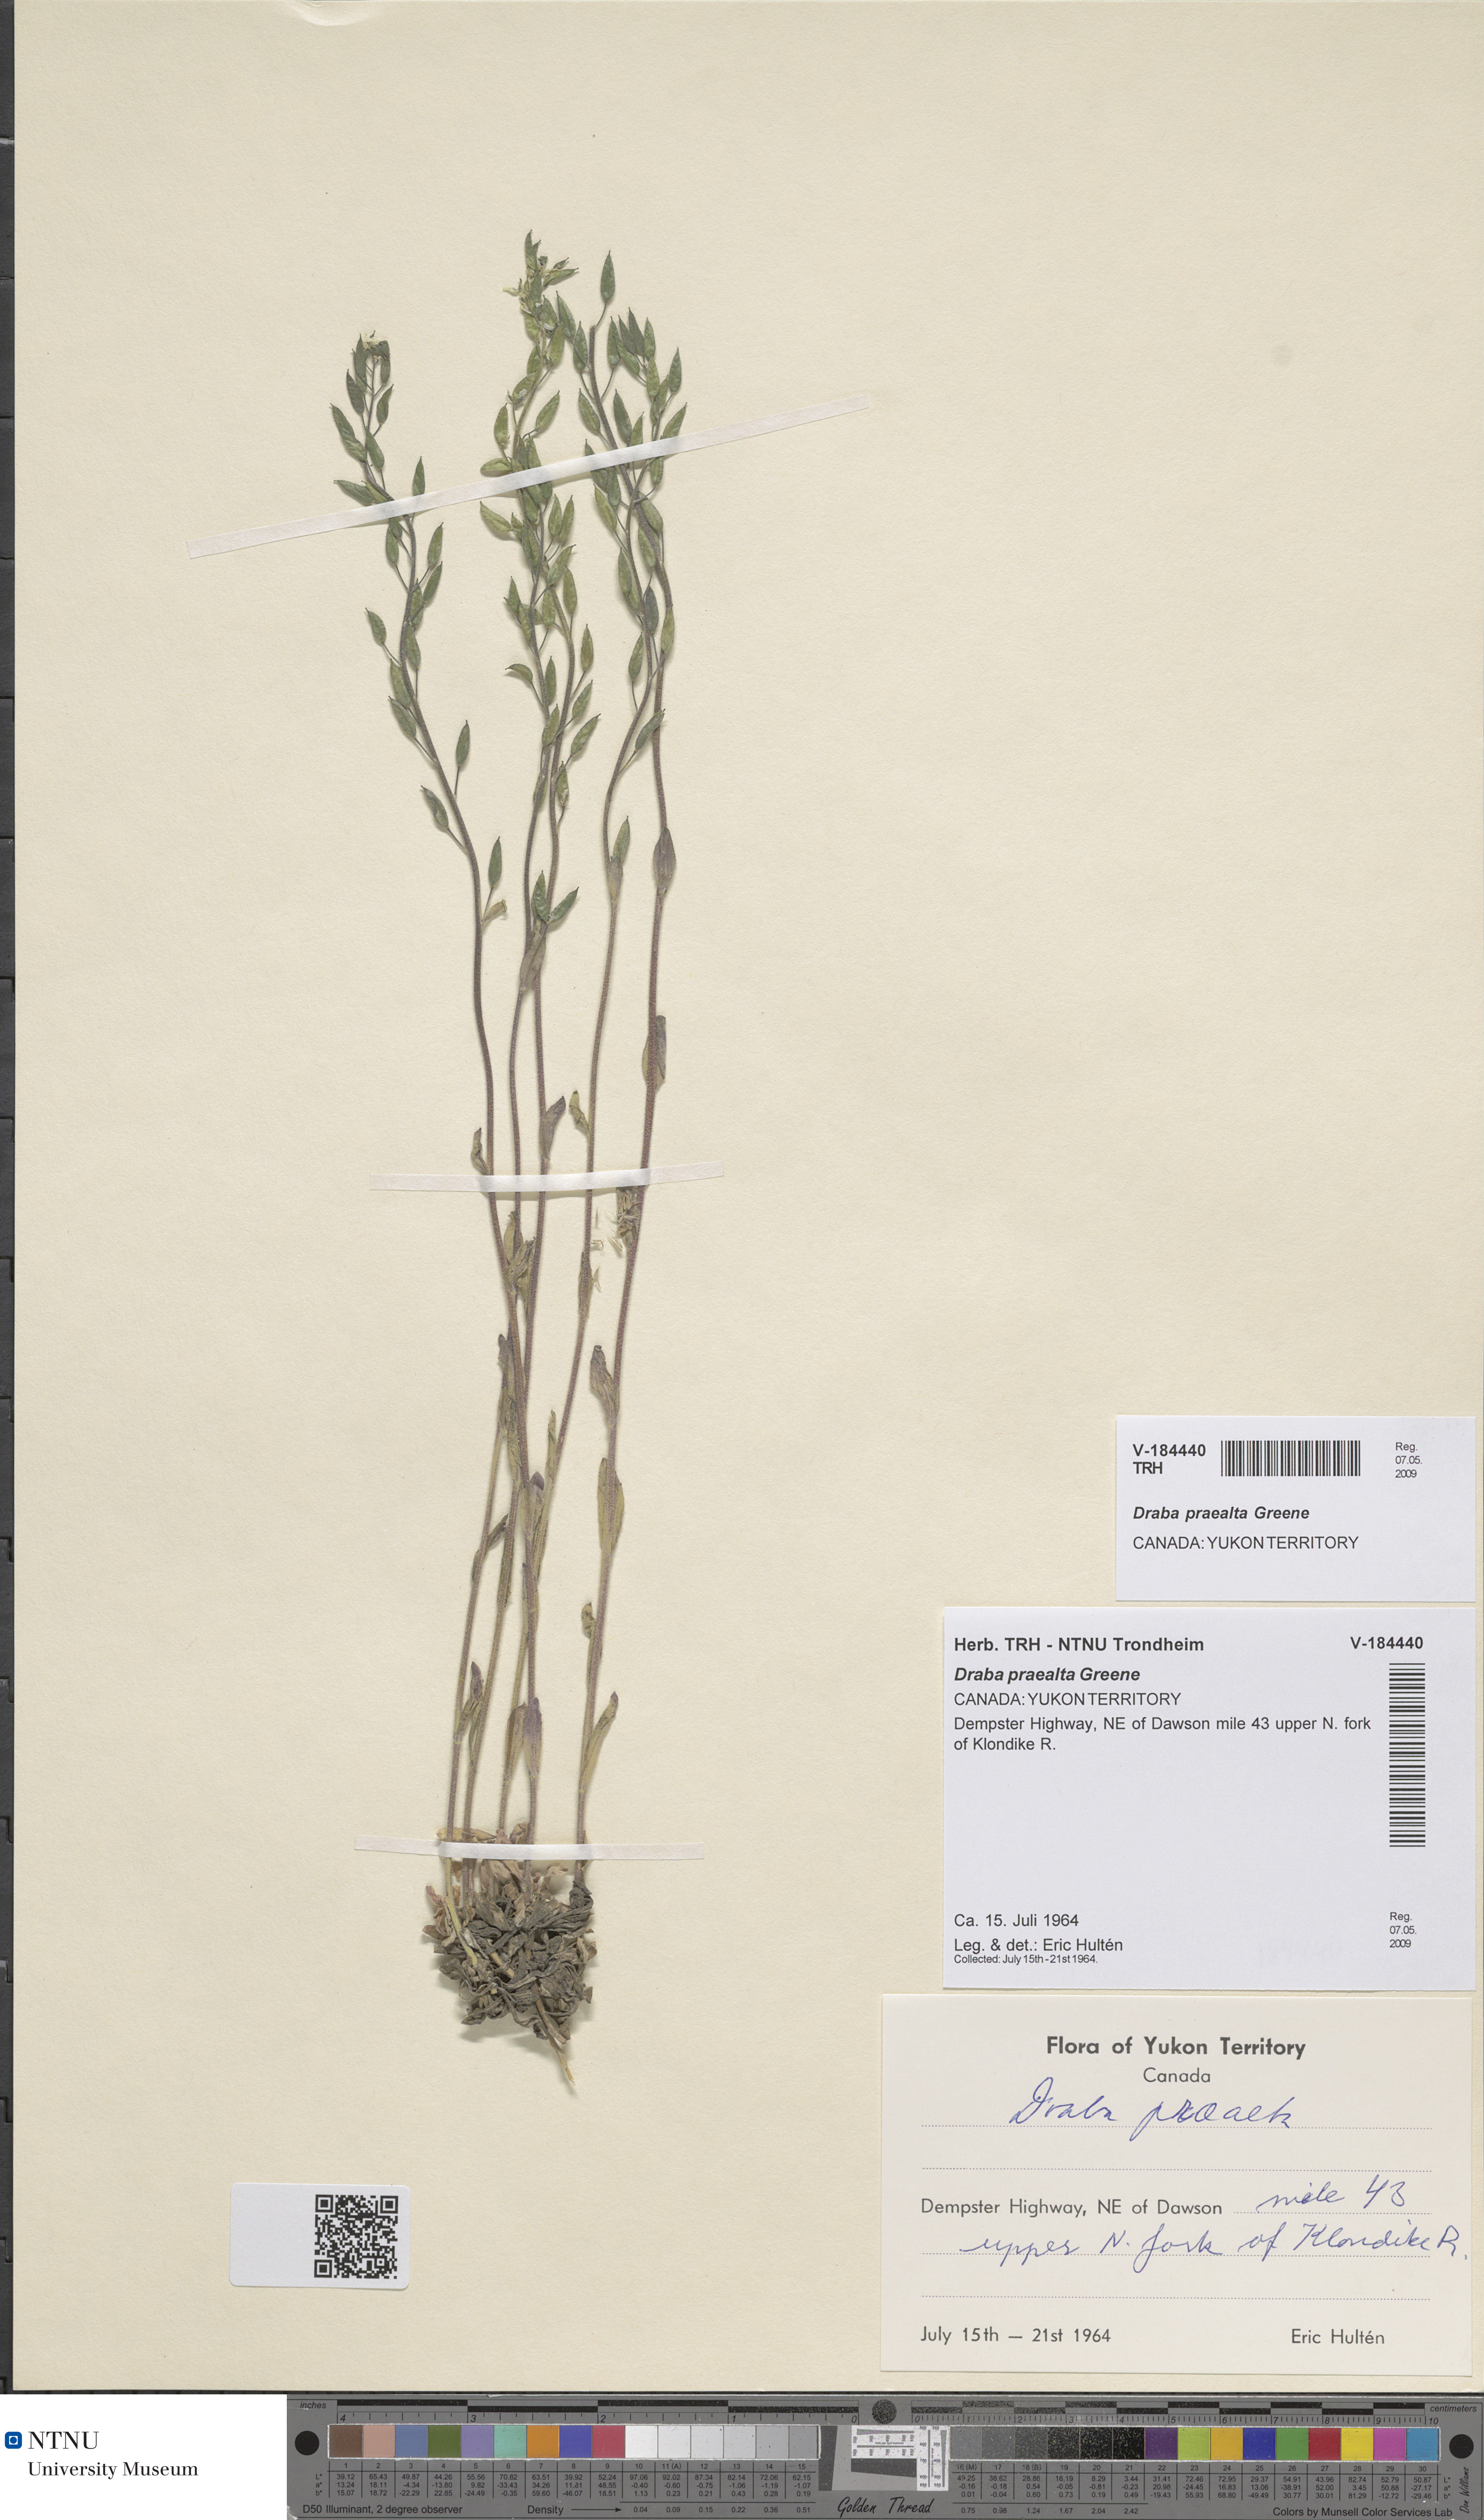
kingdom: Plantae
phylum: Tracheophyta
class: Magnoliopsida
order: Brassicales
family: Brassicaceae
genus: Draba
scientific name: Draba praealta
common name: Tall draba
